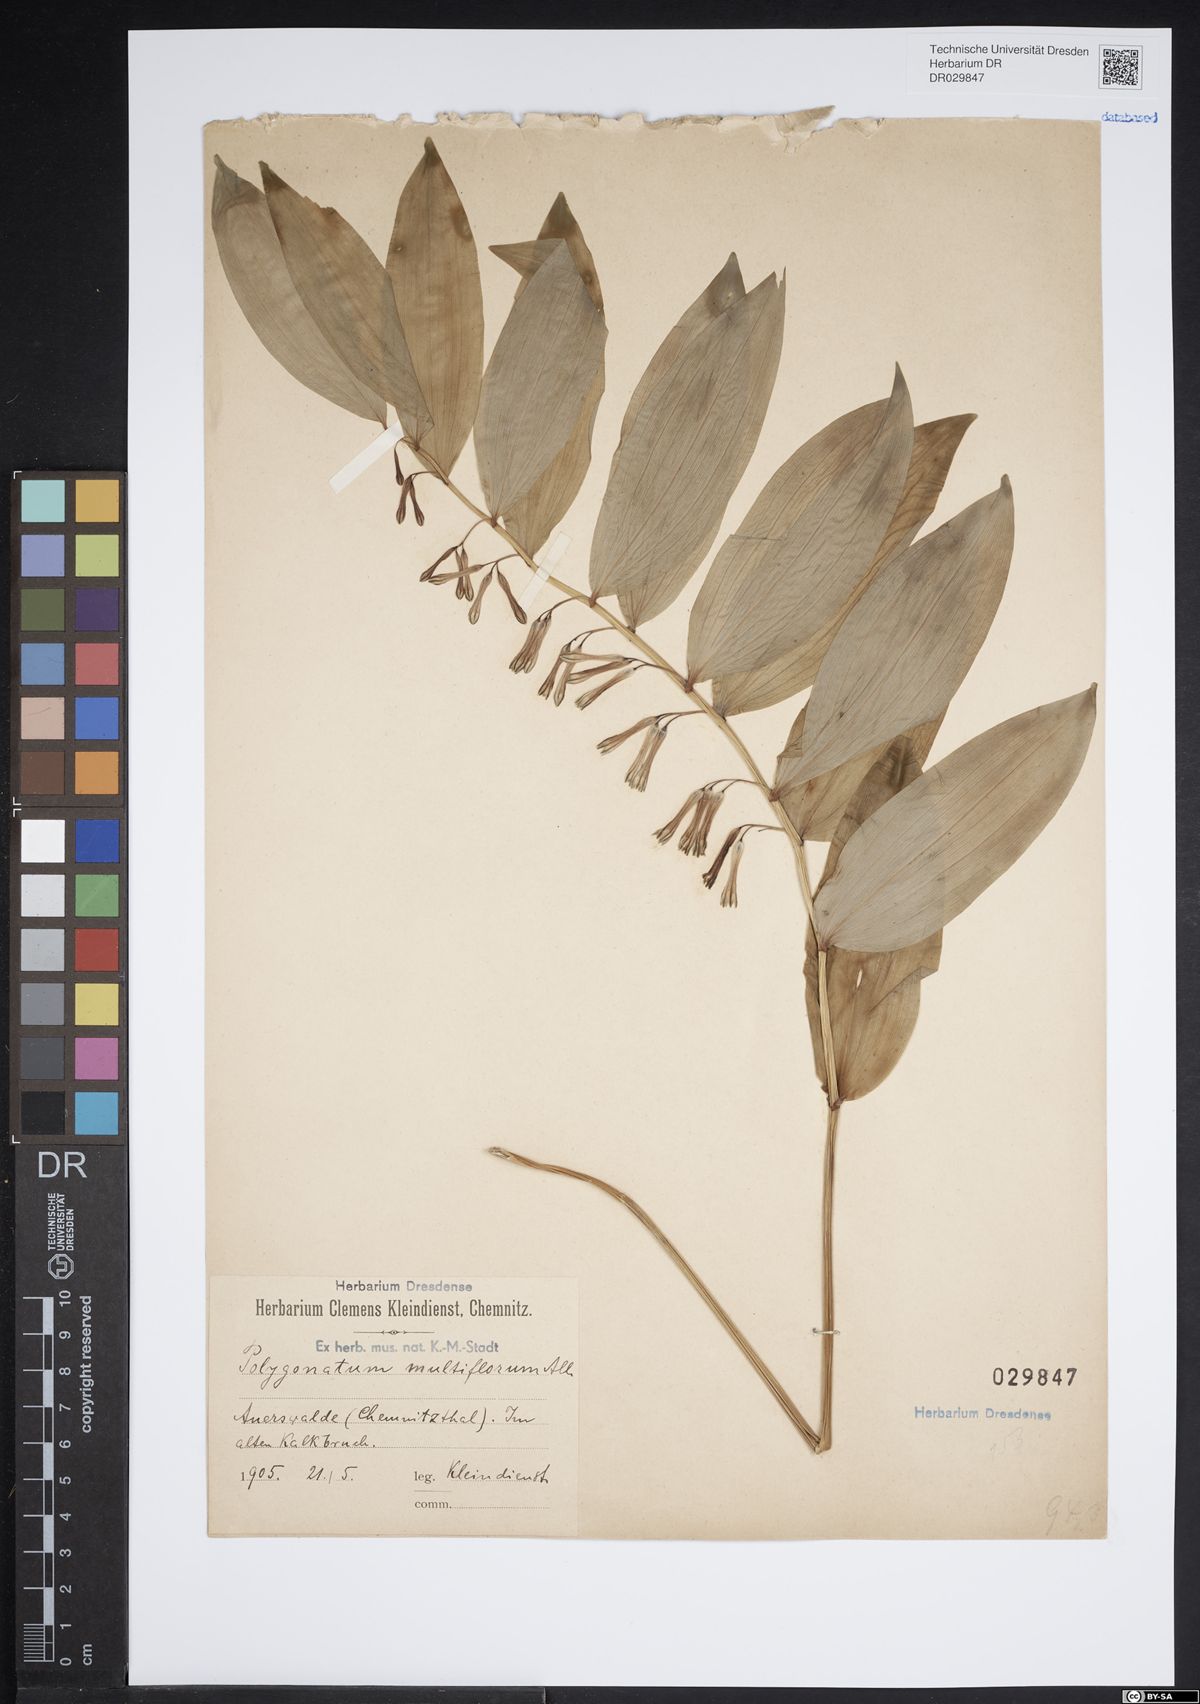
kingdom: Plantae
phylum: Tracheophyta
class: Liliopsida
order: Asparagales
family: Asparagaceae
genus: Polygonatum
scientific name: Polygonatum odoratum
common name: Angular solomon's-seal
